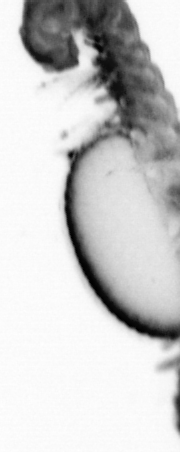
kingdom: Animalia
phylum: Annelida
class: Polychaeta
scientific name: Polychaeta
